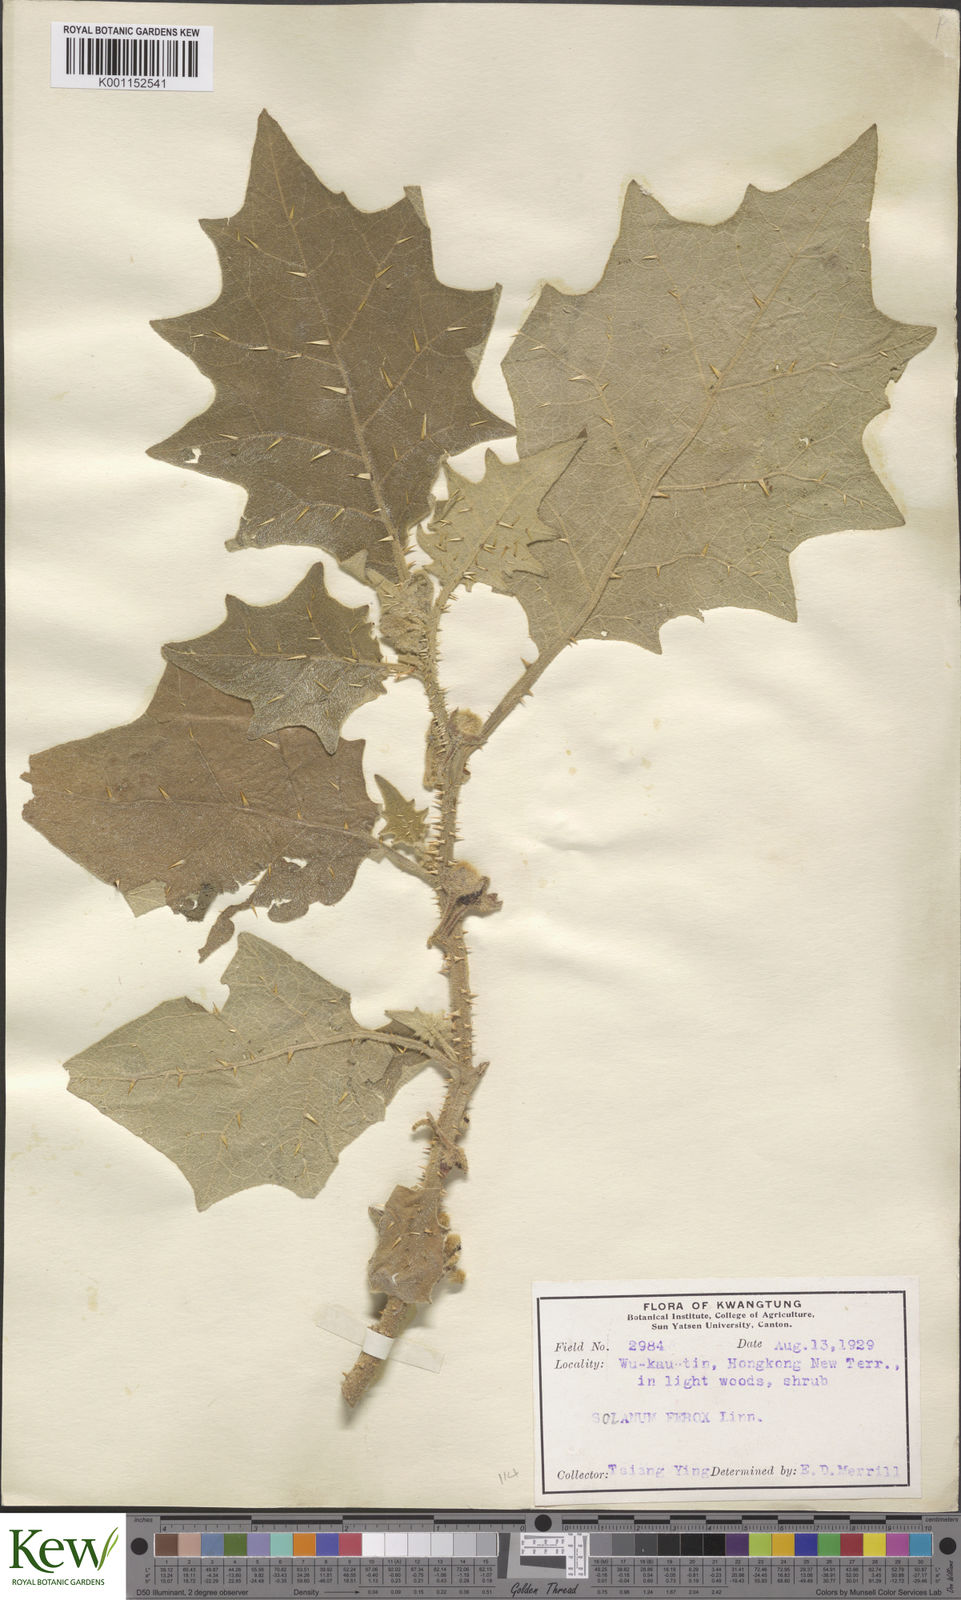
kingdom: Plantae
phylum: Tracheophyta
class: Magnoliopsida
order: Solanales
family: Solanaceae
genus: Solanum
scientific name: Solanum lasiocarpum
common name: Indian nightshade
